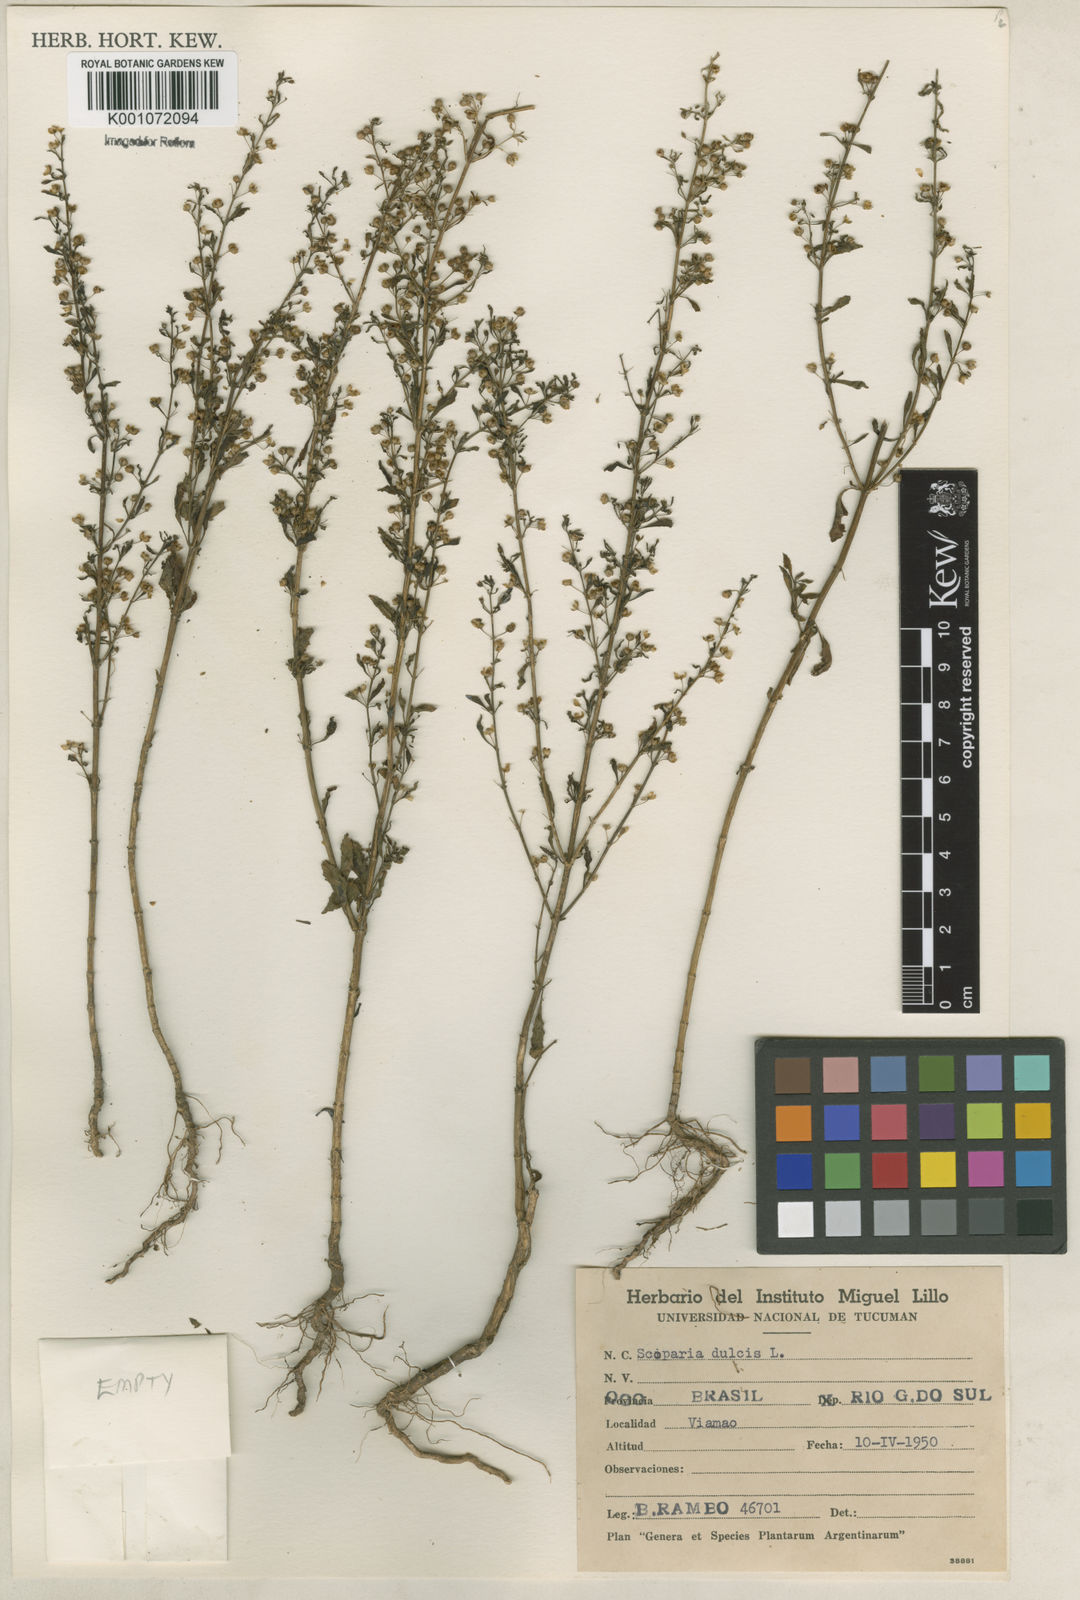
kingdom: Plantae
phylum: Tracheophyta
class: Magnoliopsida
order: Lamiales
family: Plantaginaceae
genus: Scoparia
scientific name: Scoparia dulcis
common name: Scoparia-weed
